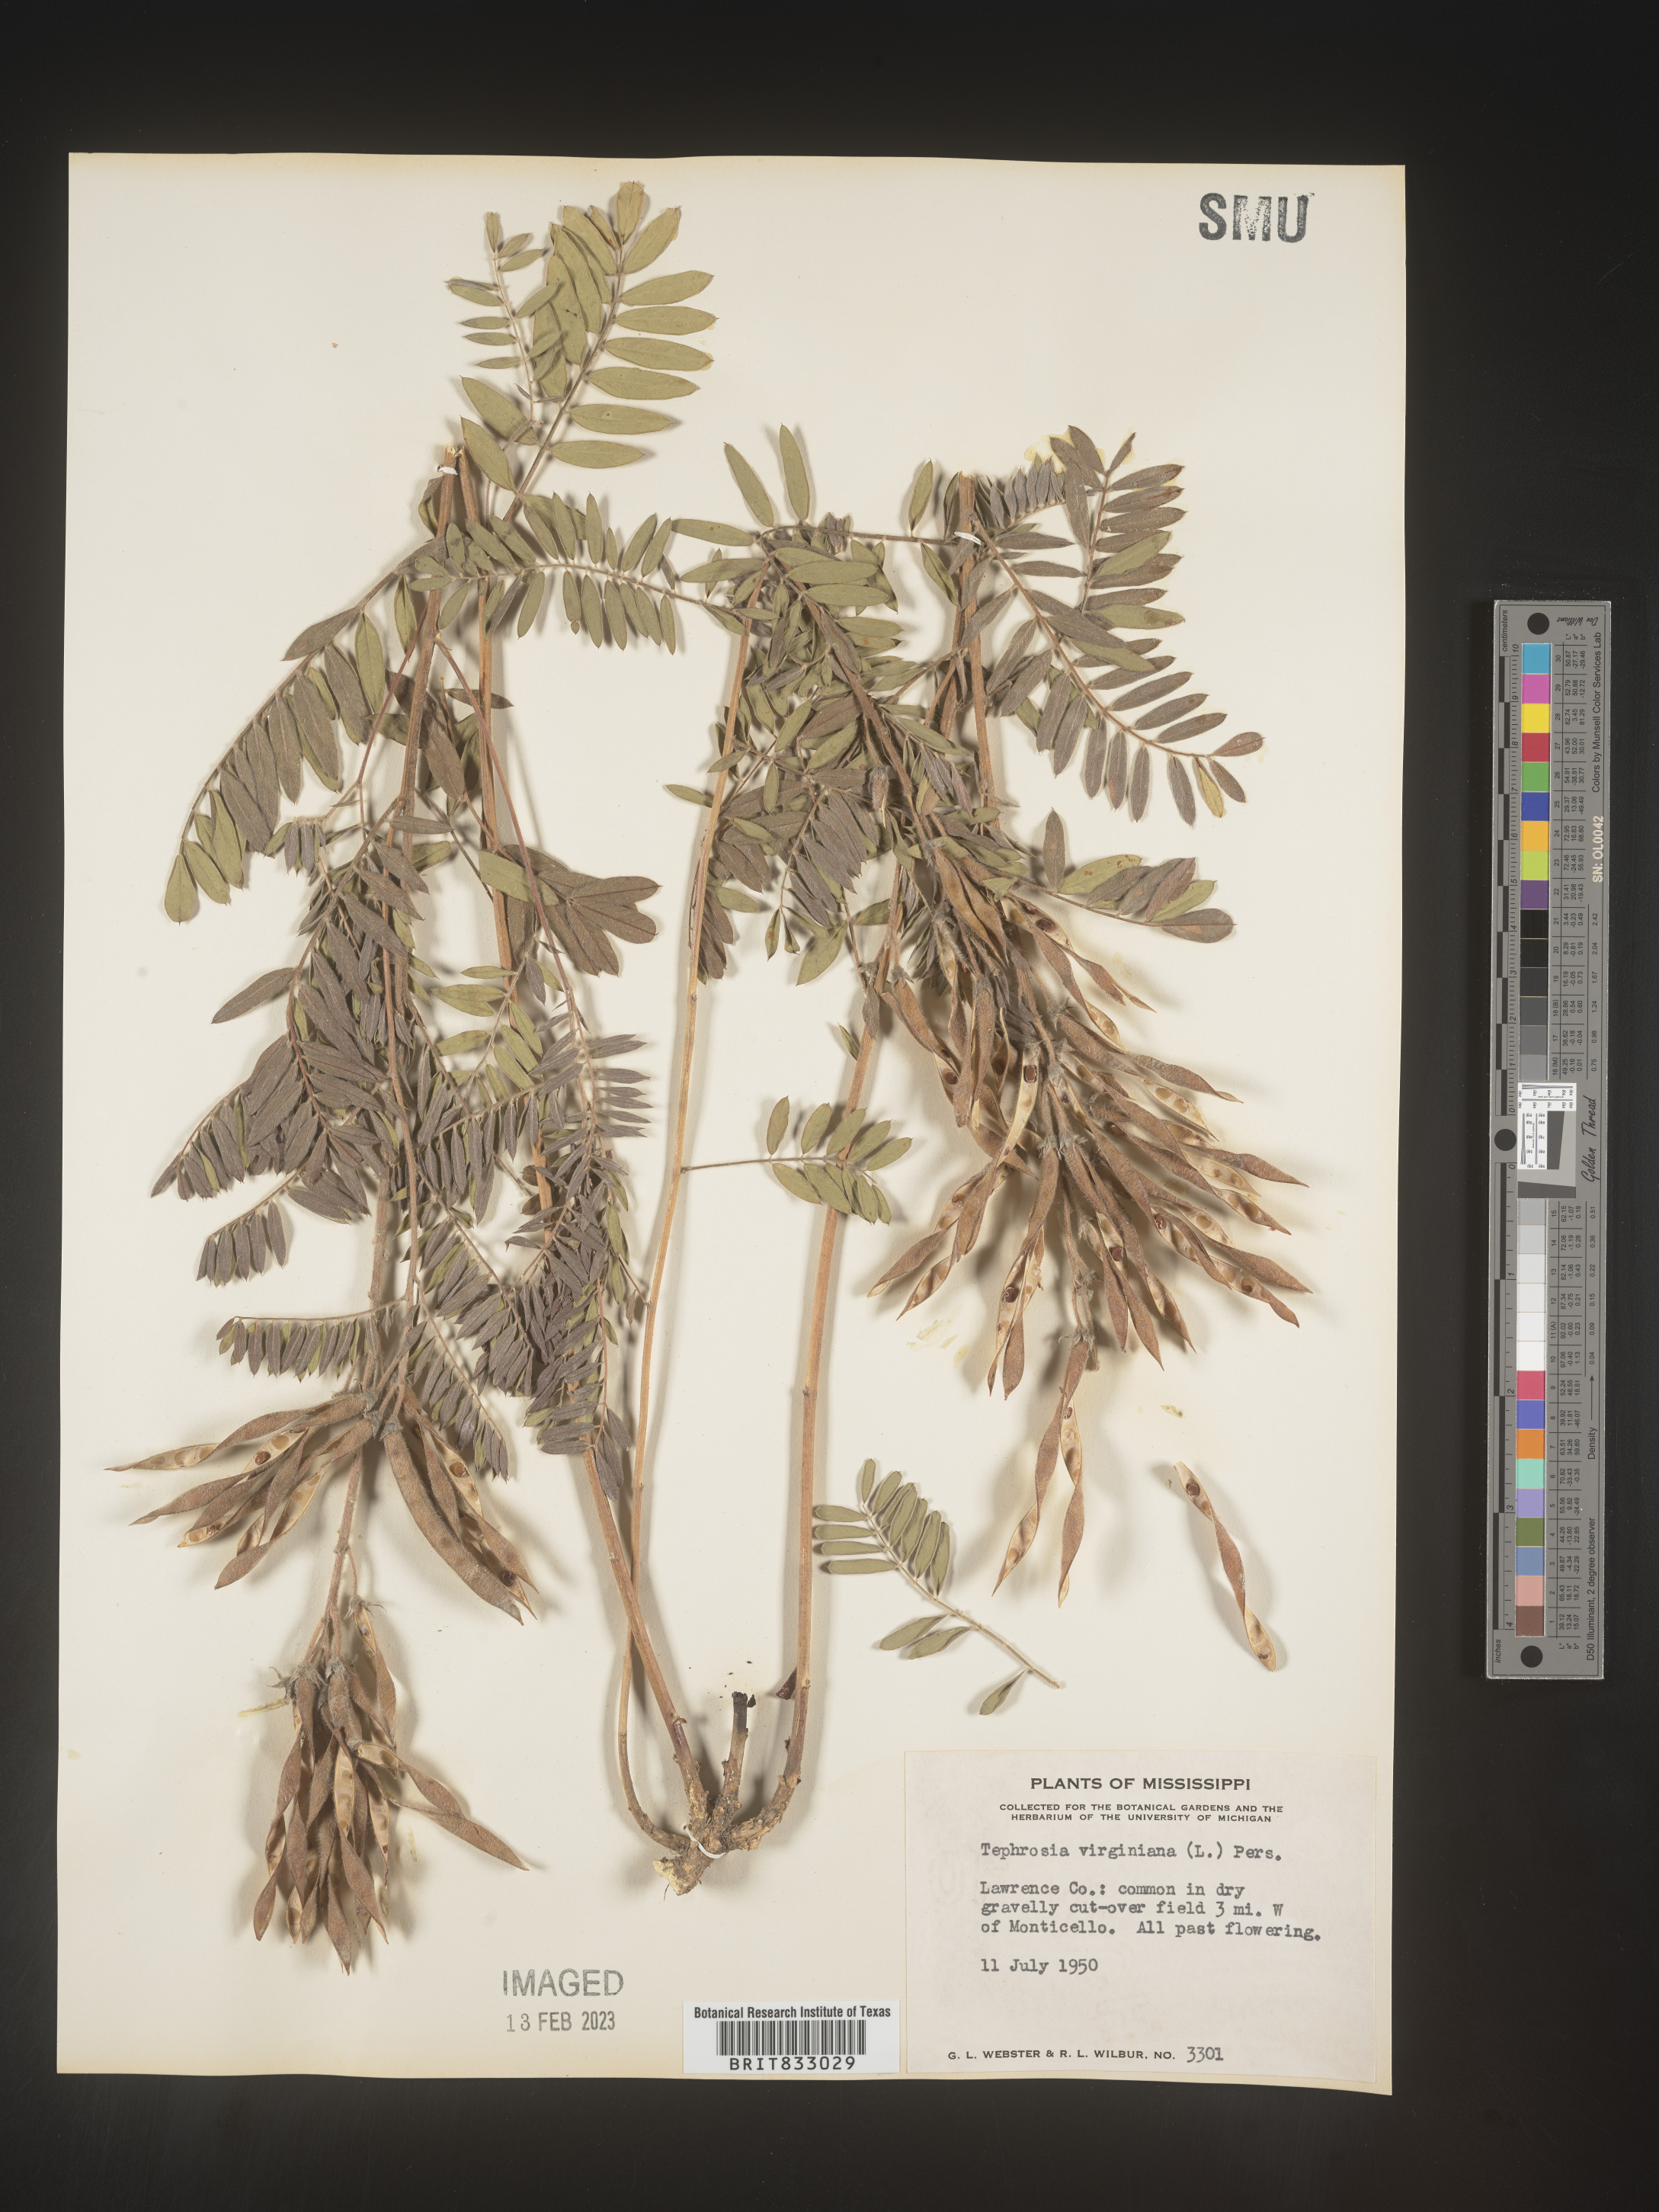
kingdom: Plantae
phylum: Tracheophyta
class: Magnoliopsida
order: Fabales
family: Fabaceae
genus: Tephrosia
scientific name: Tephrosia virginiana
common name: Rabbit-pea
